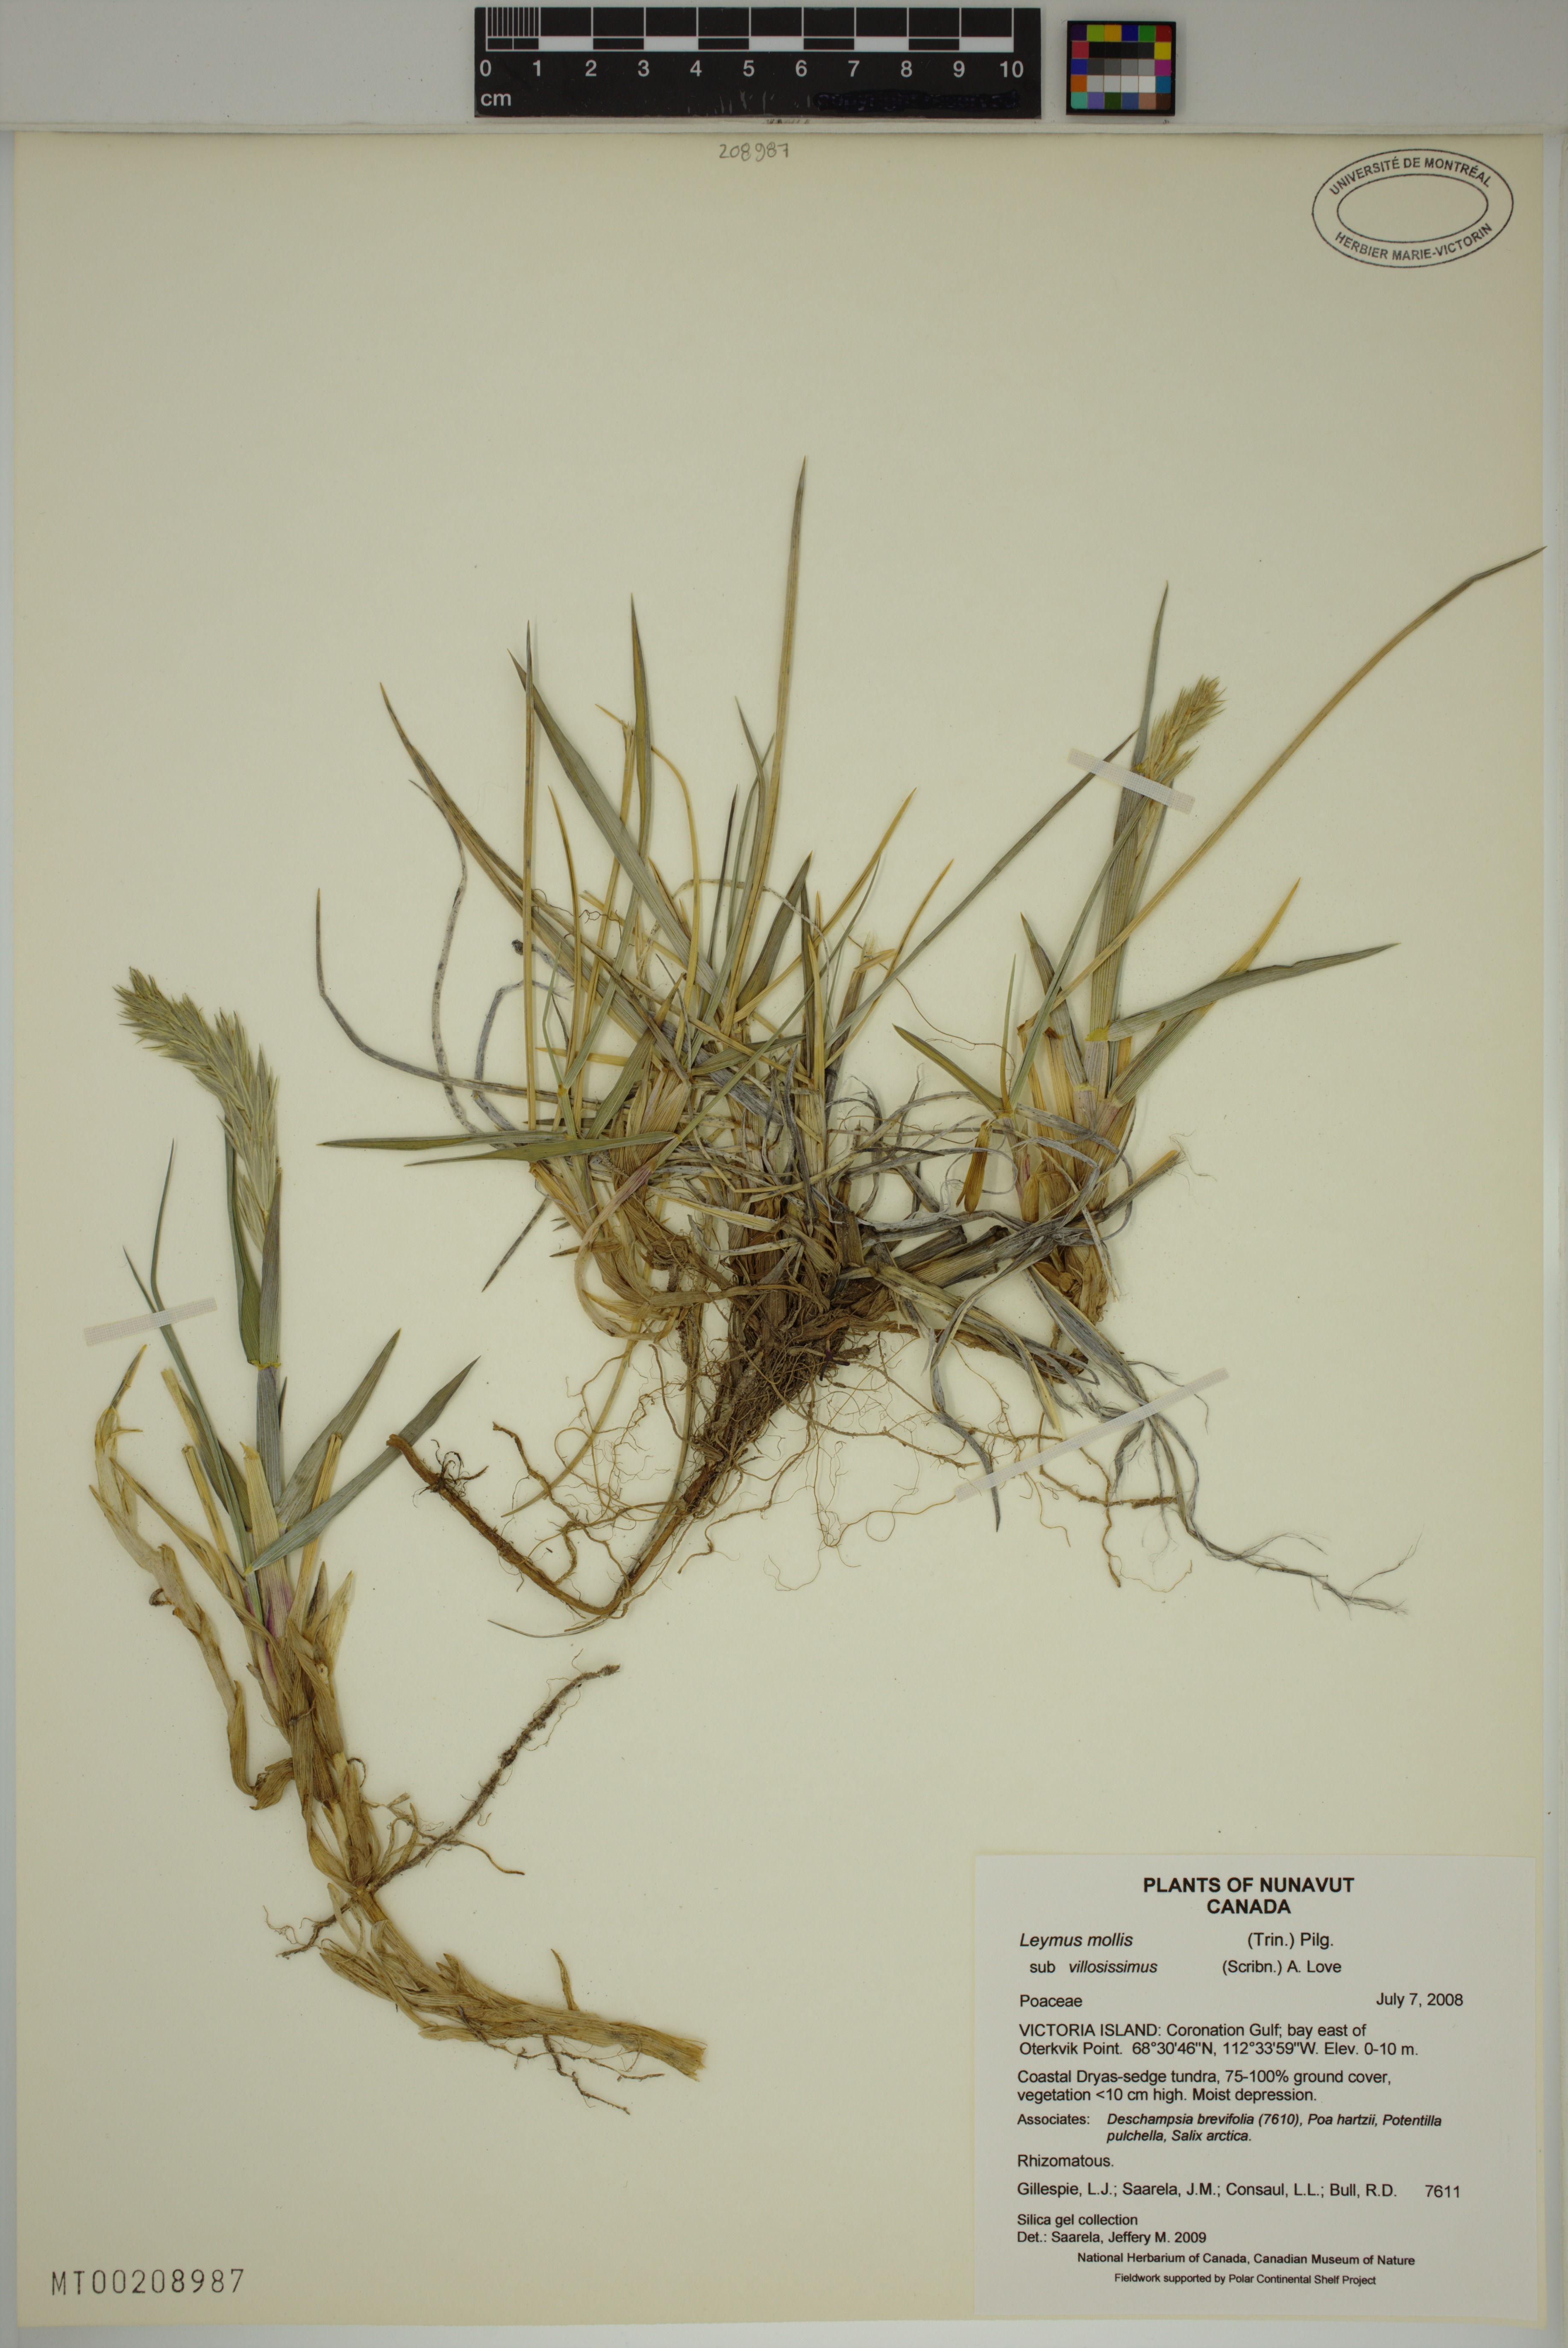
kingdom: Plantae
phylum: Tracheophyta
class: Liliopsida
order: Poales
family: Poaceae
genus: Leymus
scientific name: Leymus villosissimus
